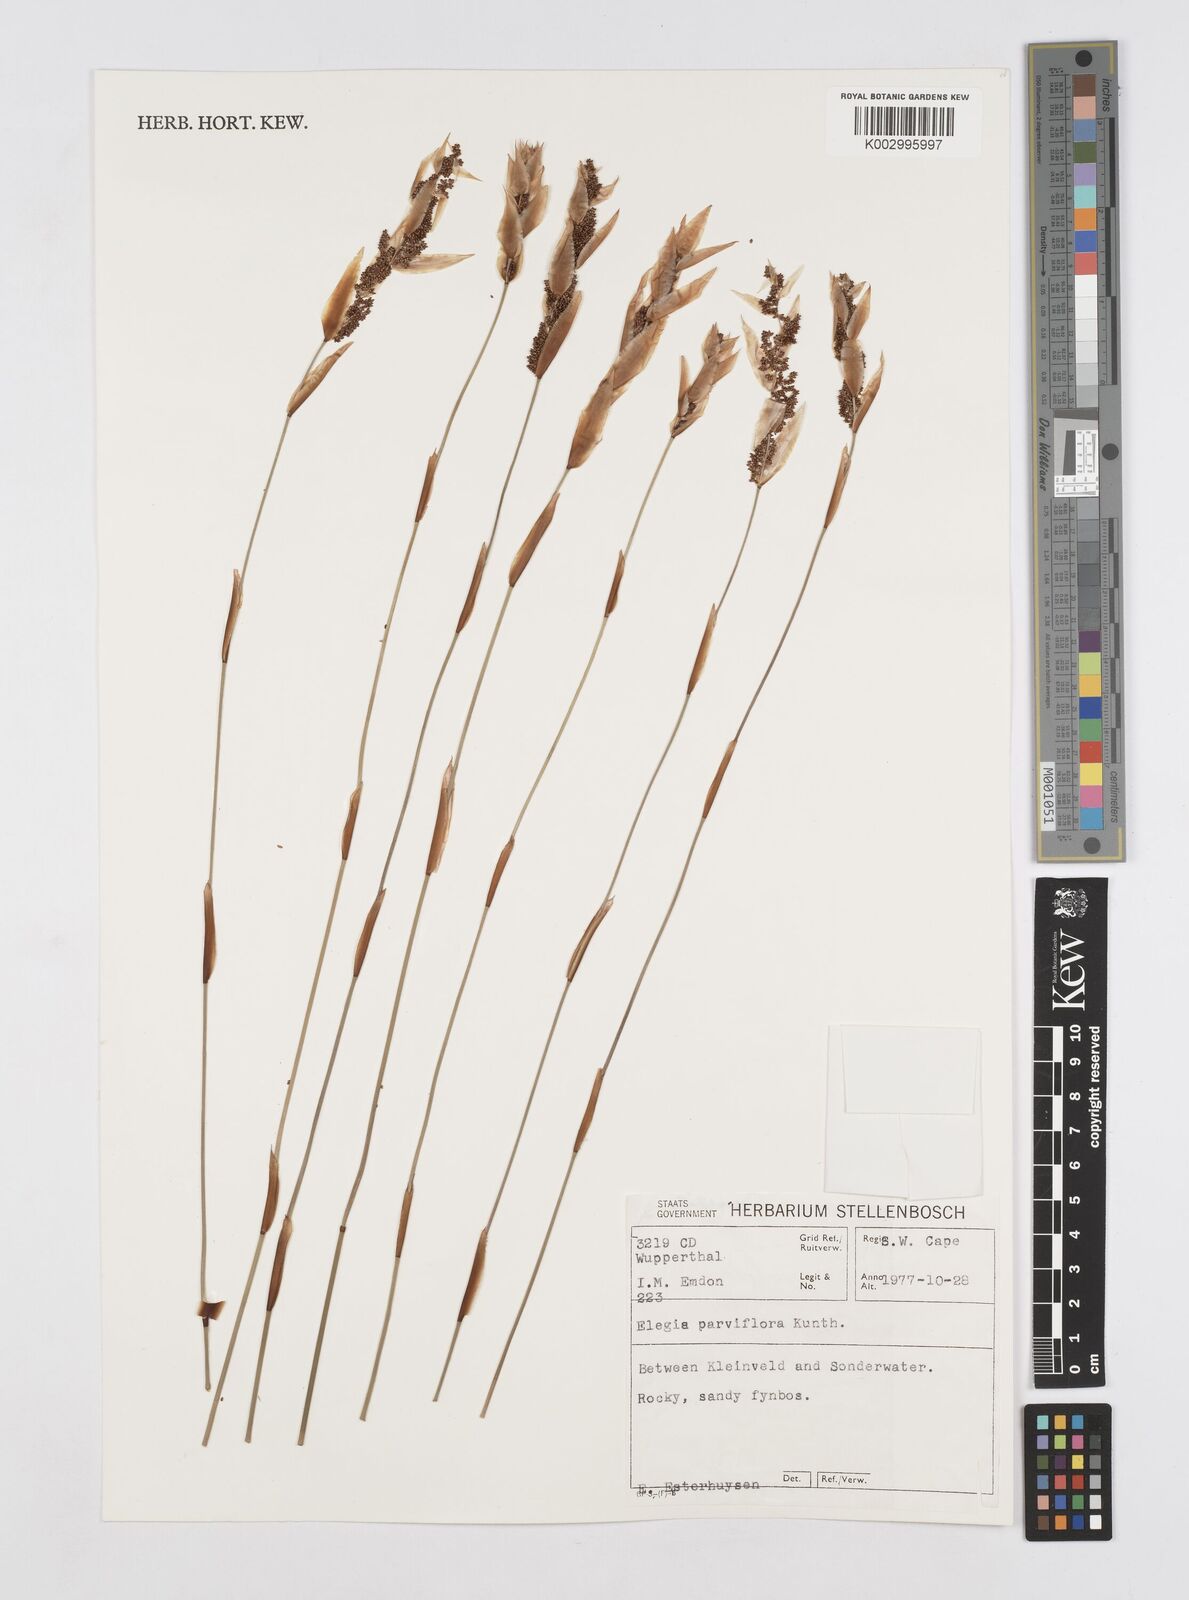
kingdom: Plantae
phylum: Tracheophyta
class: Liliopsida
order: Poales
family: Restionaceae
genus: Cannomois
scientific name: Cannomois parviflora
